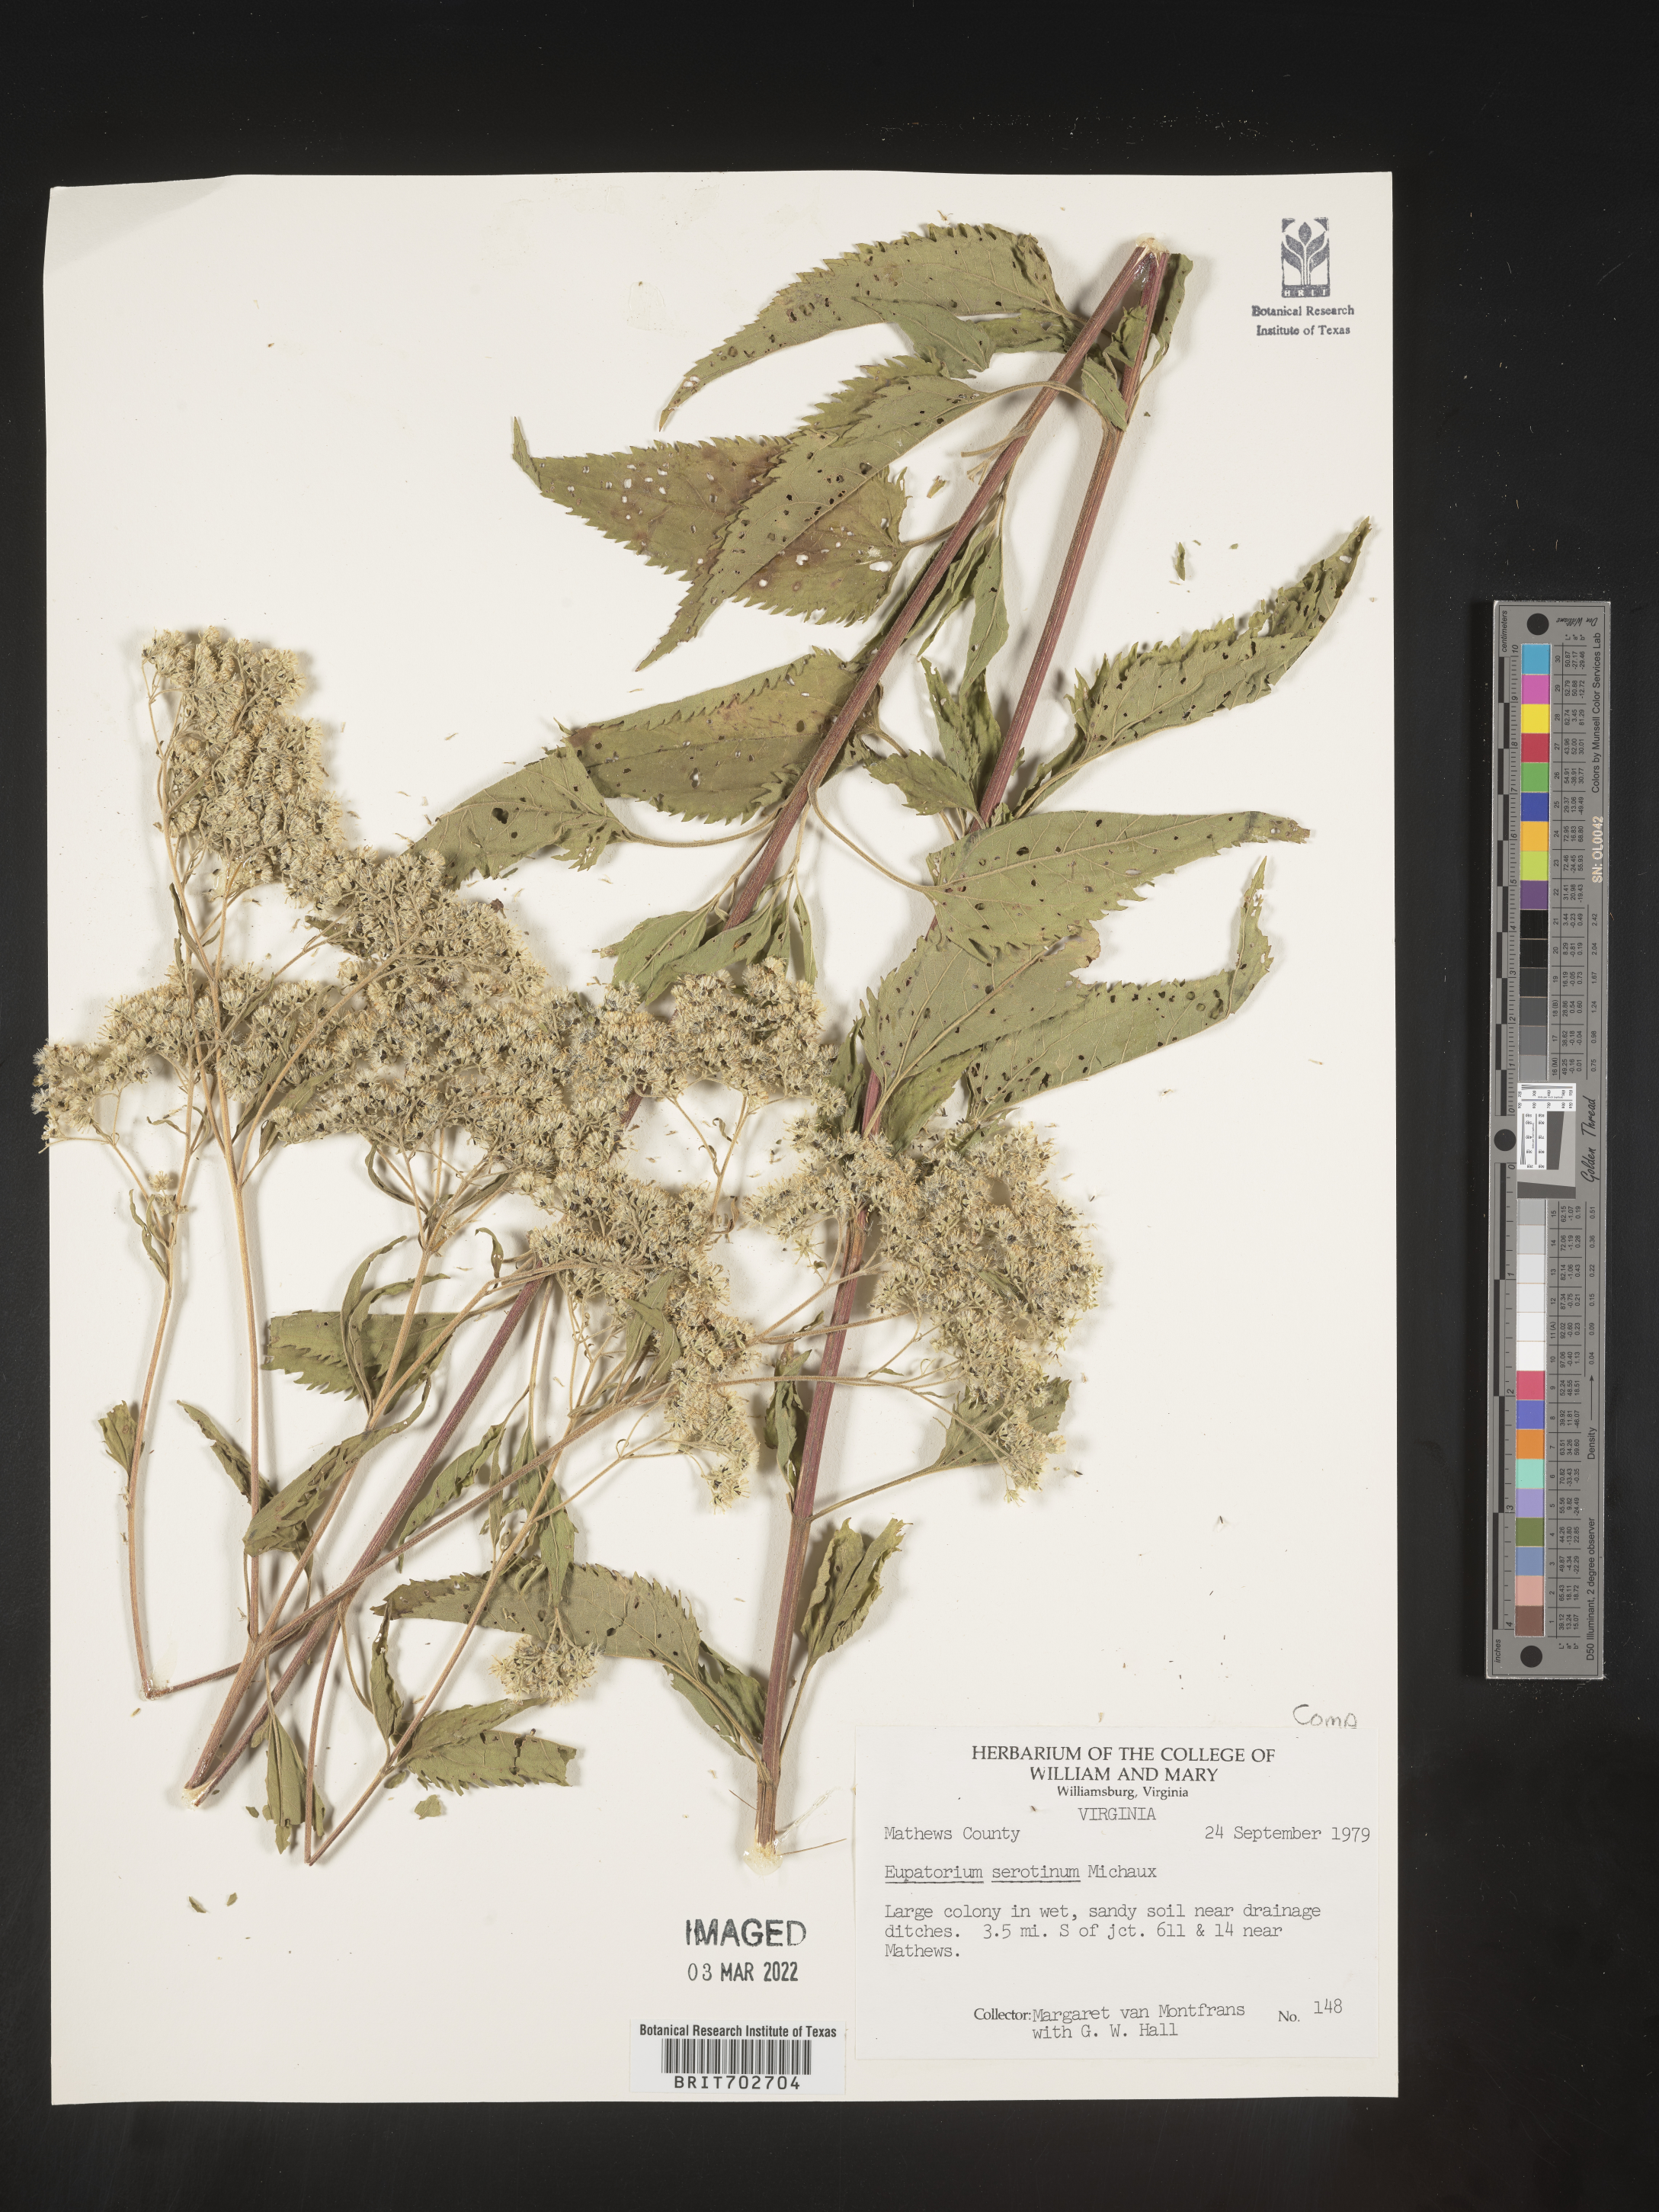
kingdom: Plantae
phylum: Tracheophyta
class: Magnoliopsida
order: Asterales
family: Asteraceae
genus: Eupatorium
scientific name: Eupatorium serotinum
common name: Late boneset
